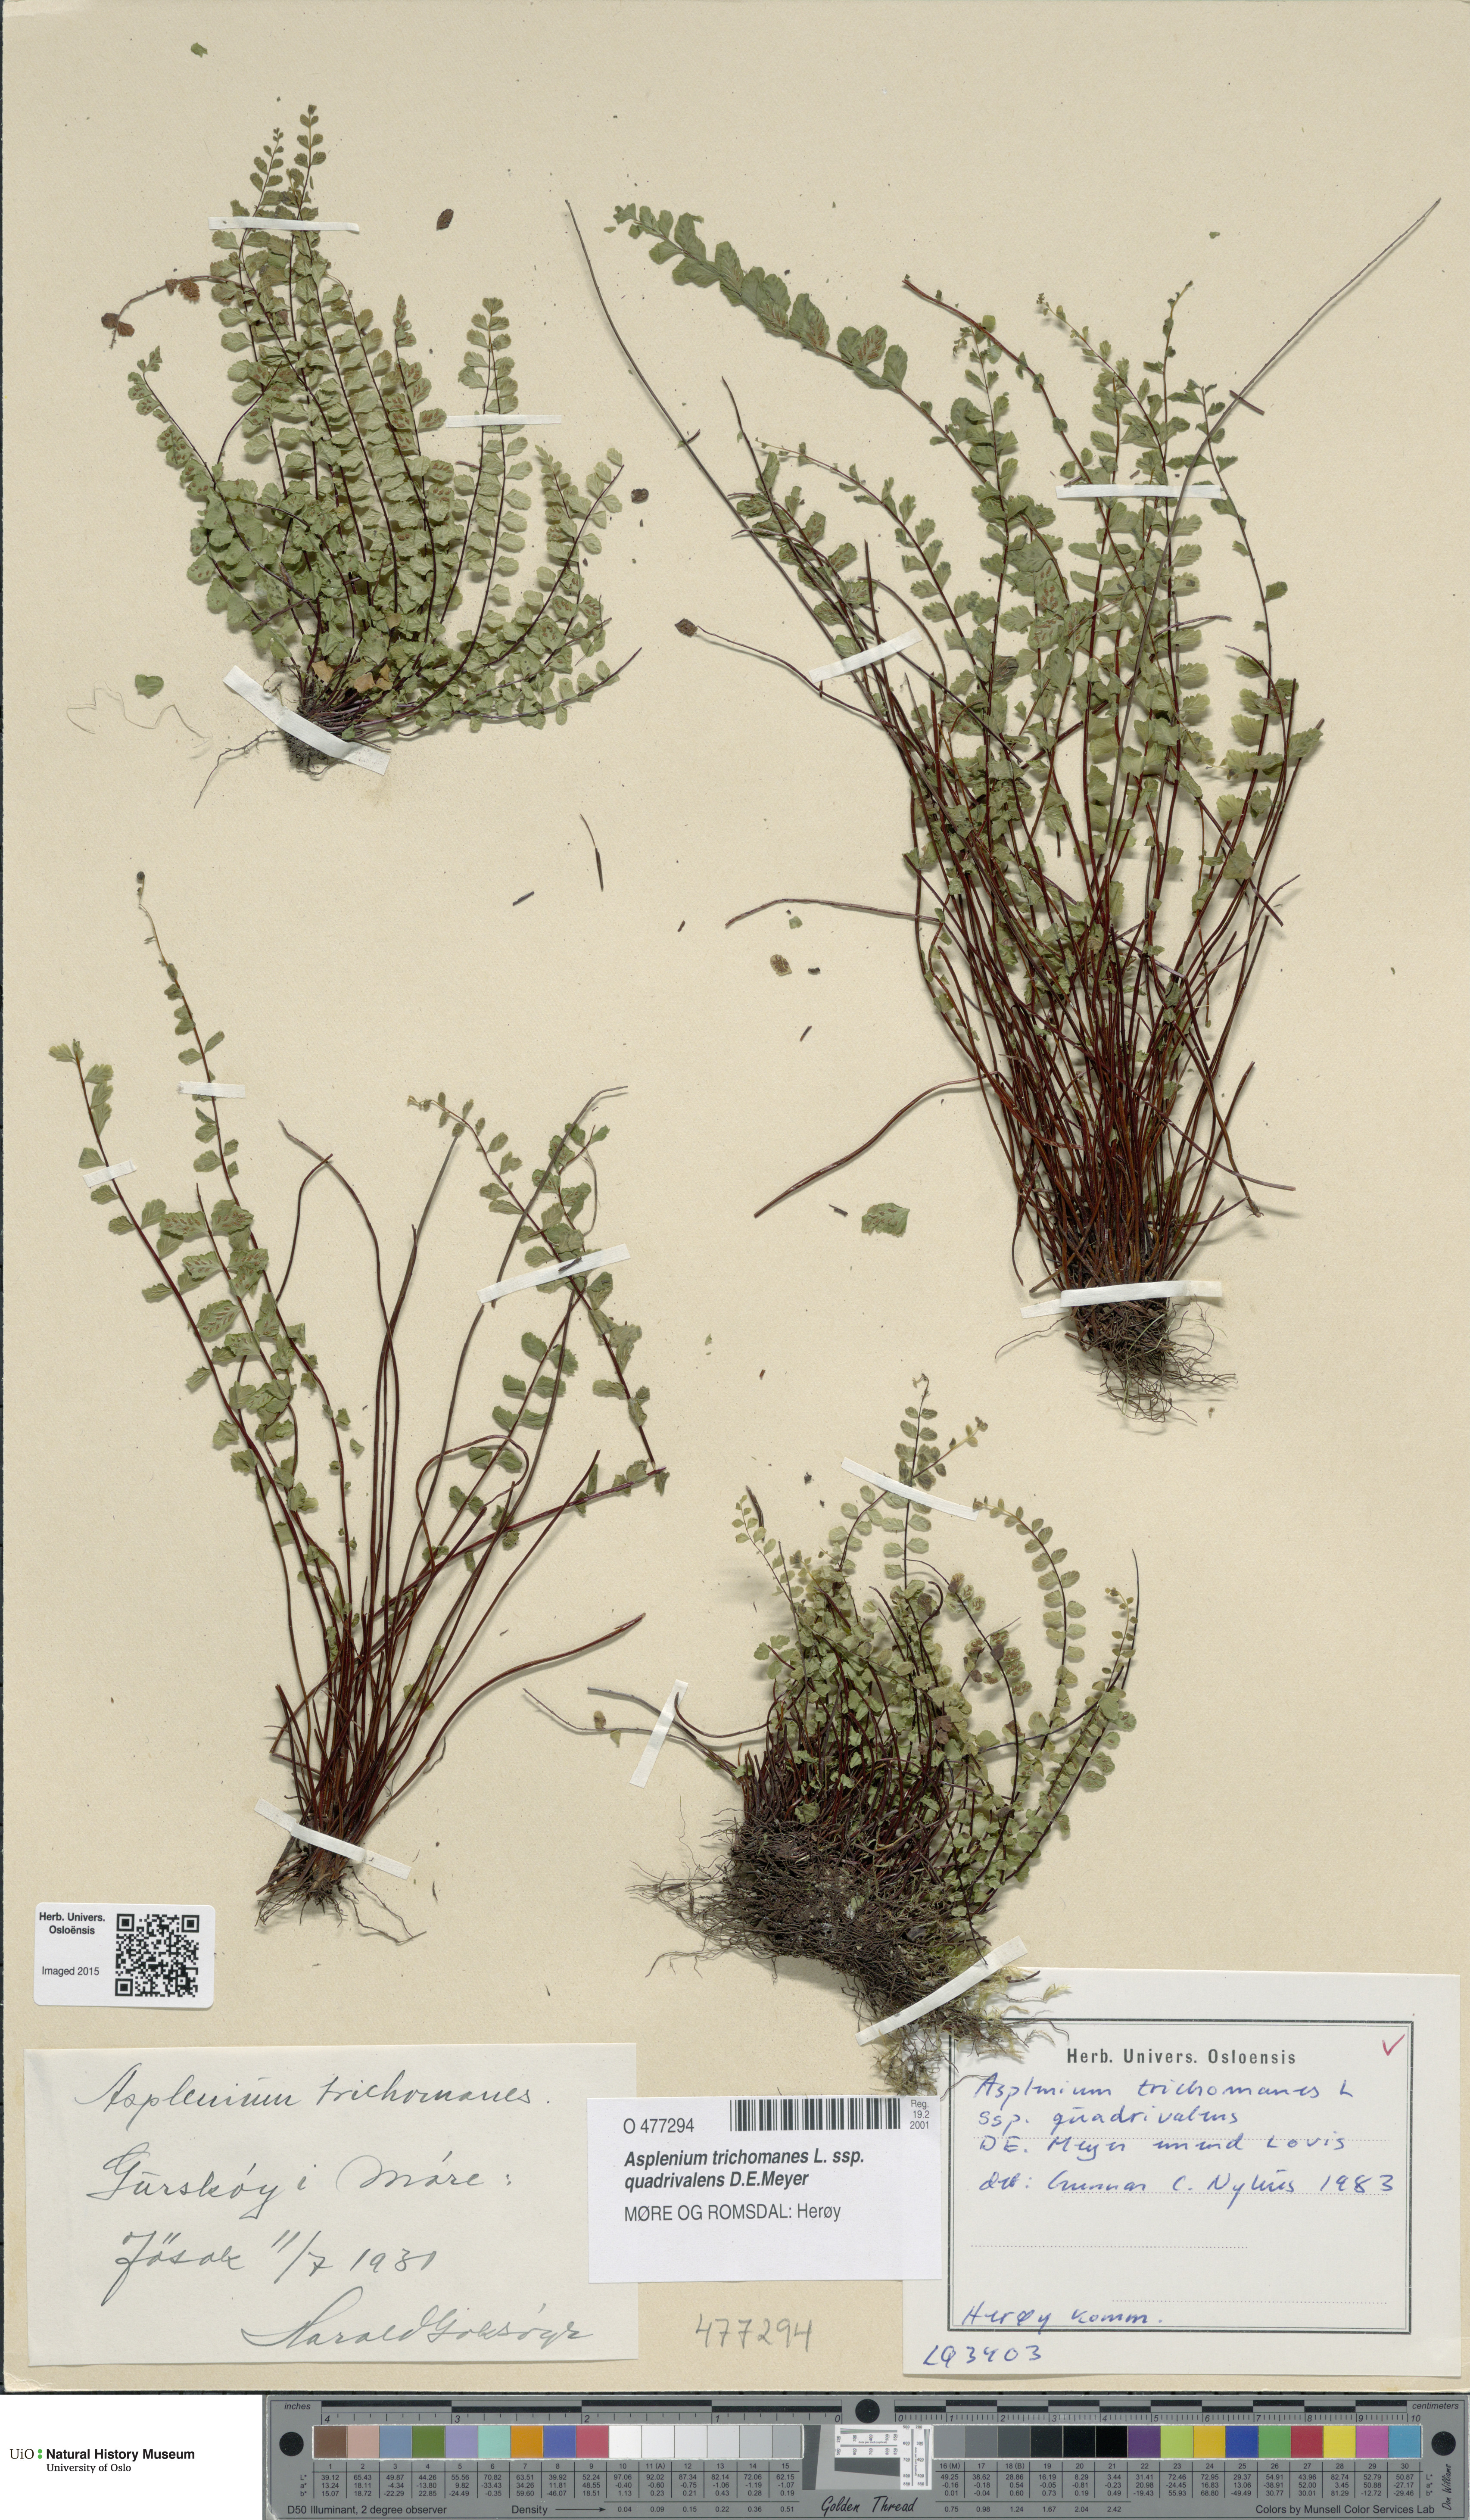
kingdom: Plantae
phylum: Tracheophyta
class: Polypodiopsida
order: Polypodiales
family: Aspleniaceae
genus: Asplenium
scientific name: Asplenium quadrivalens
